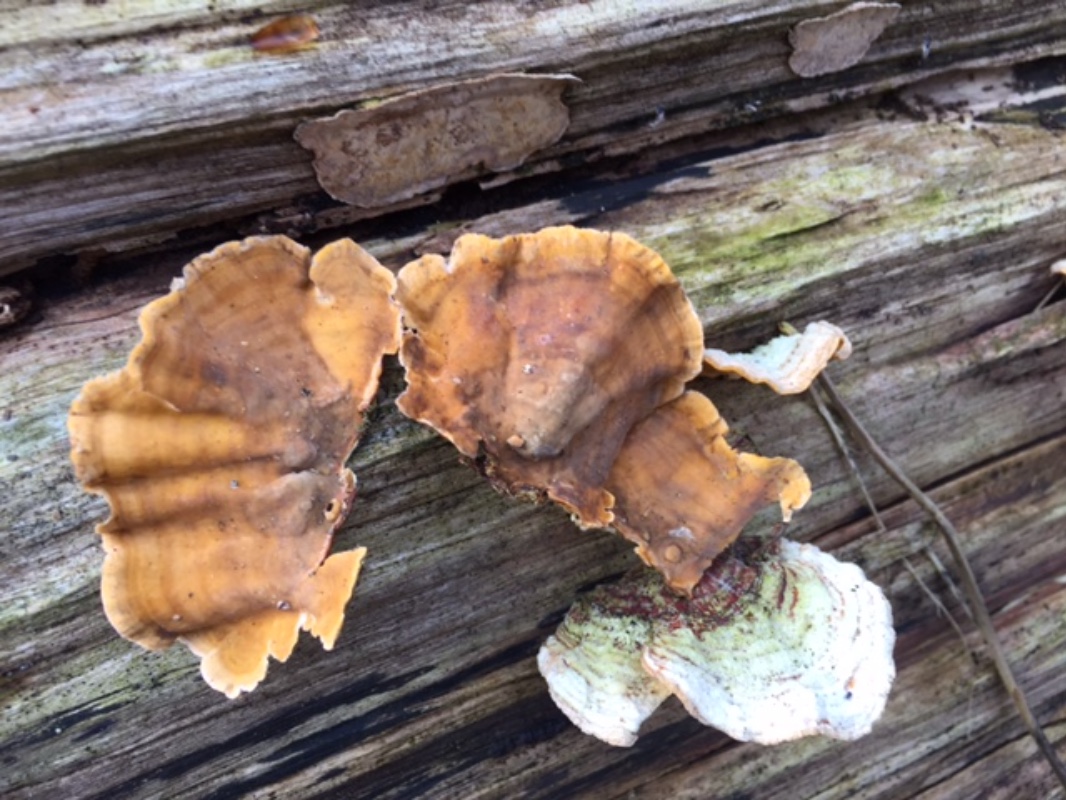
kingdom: Fungi
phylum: Basidiomycota
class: Agaricomycetes
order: Russulales
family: Stereaceae
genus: Stereum
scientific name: Stereum subtomentosum
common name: smuk lædersvamp
